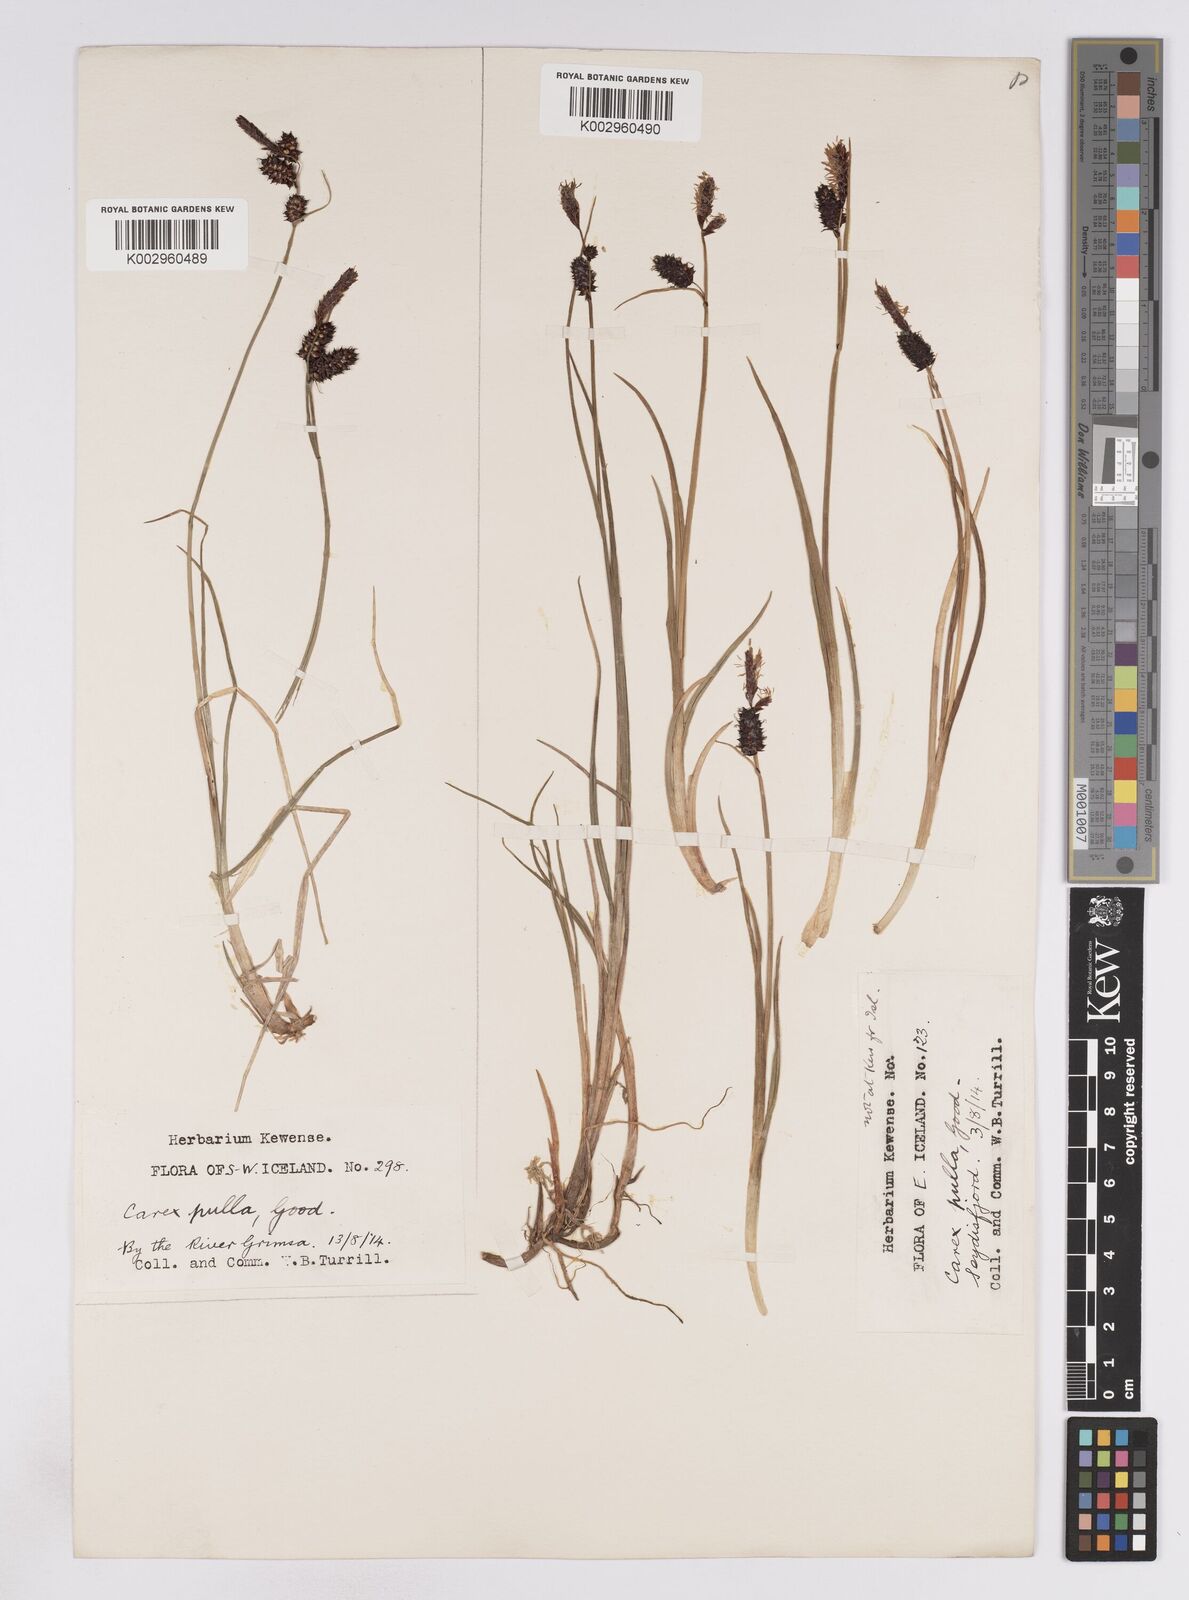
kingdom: Plantae
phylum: Tracheophyta
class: Liliopsida
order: Poales
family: Cyperaceae
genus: Carex
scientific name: Carex saxatilis
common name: Russet sedge
